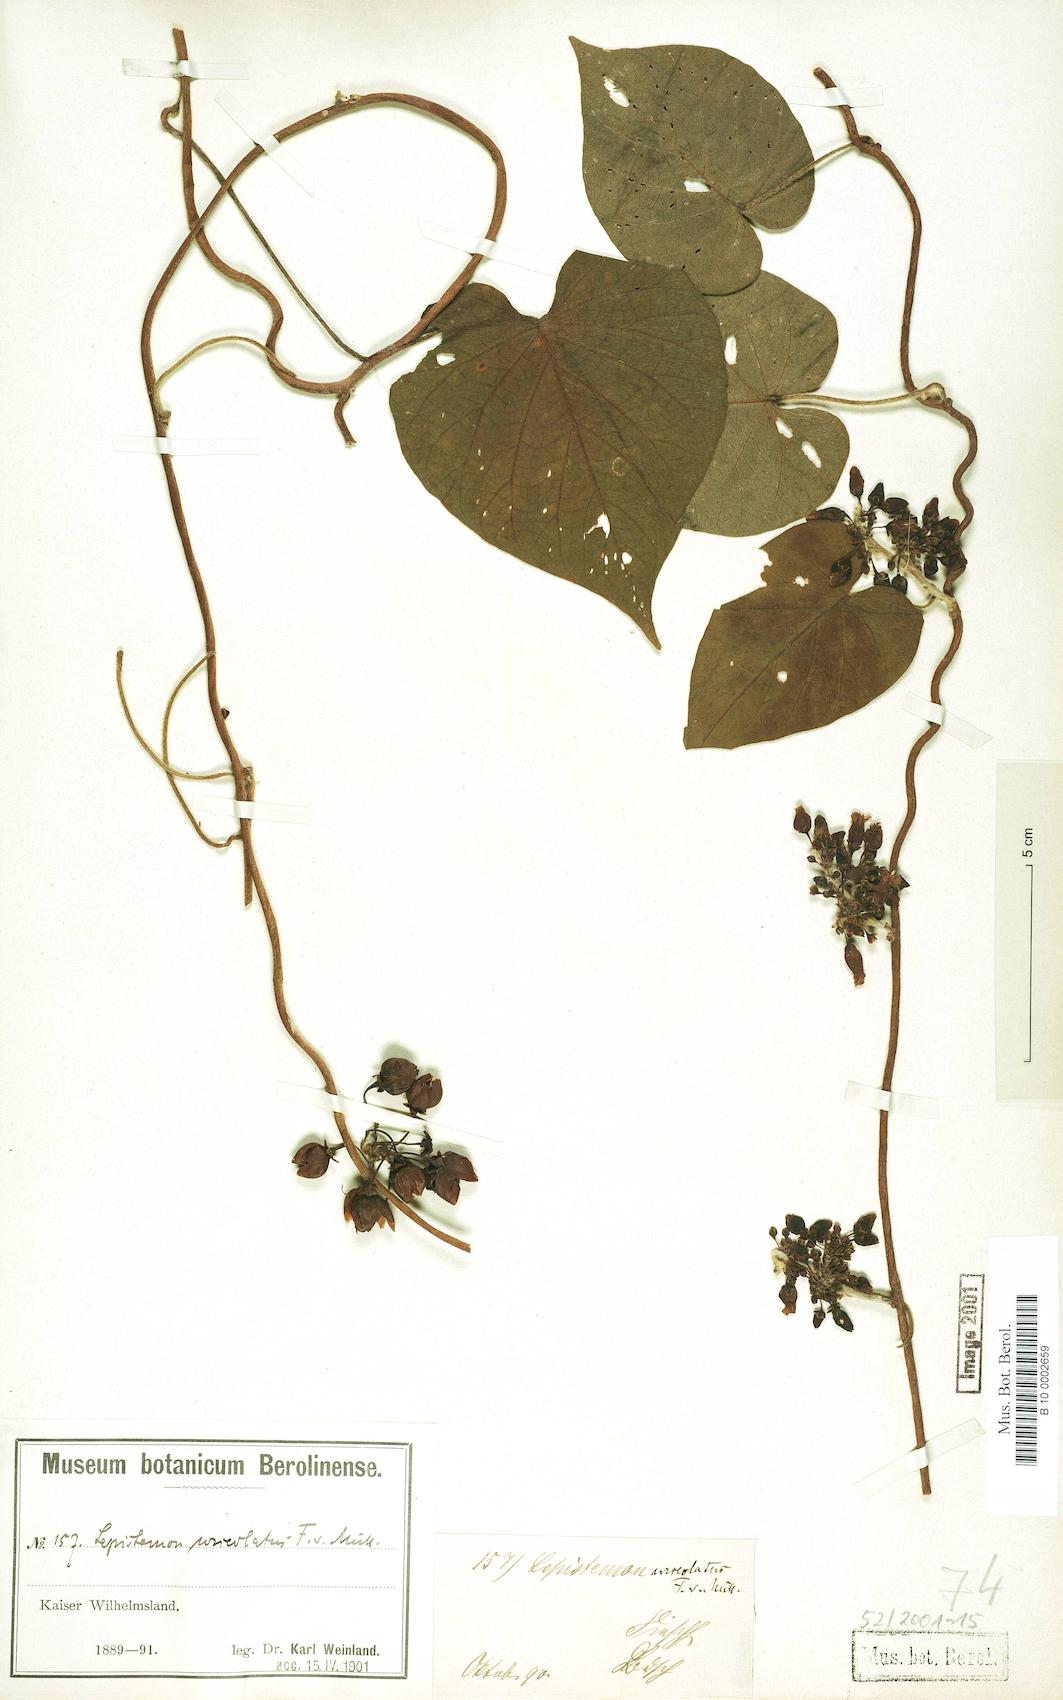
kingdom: Plantae
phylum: Tracheophyta
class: Magnoliopsida
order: Solanales
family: Convolvulaceae
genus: Lepistemon
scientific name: Lepistemon urceolatus
